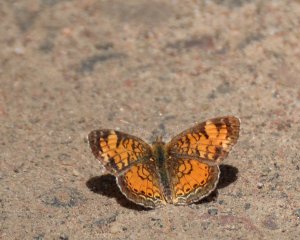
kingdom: Animalia
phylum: Arthropoda
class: Insecta
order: Lepidoptera
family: Nymphalidae
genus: Phyciodes
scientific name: Phyciodes tharos
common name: Northern Crescent
